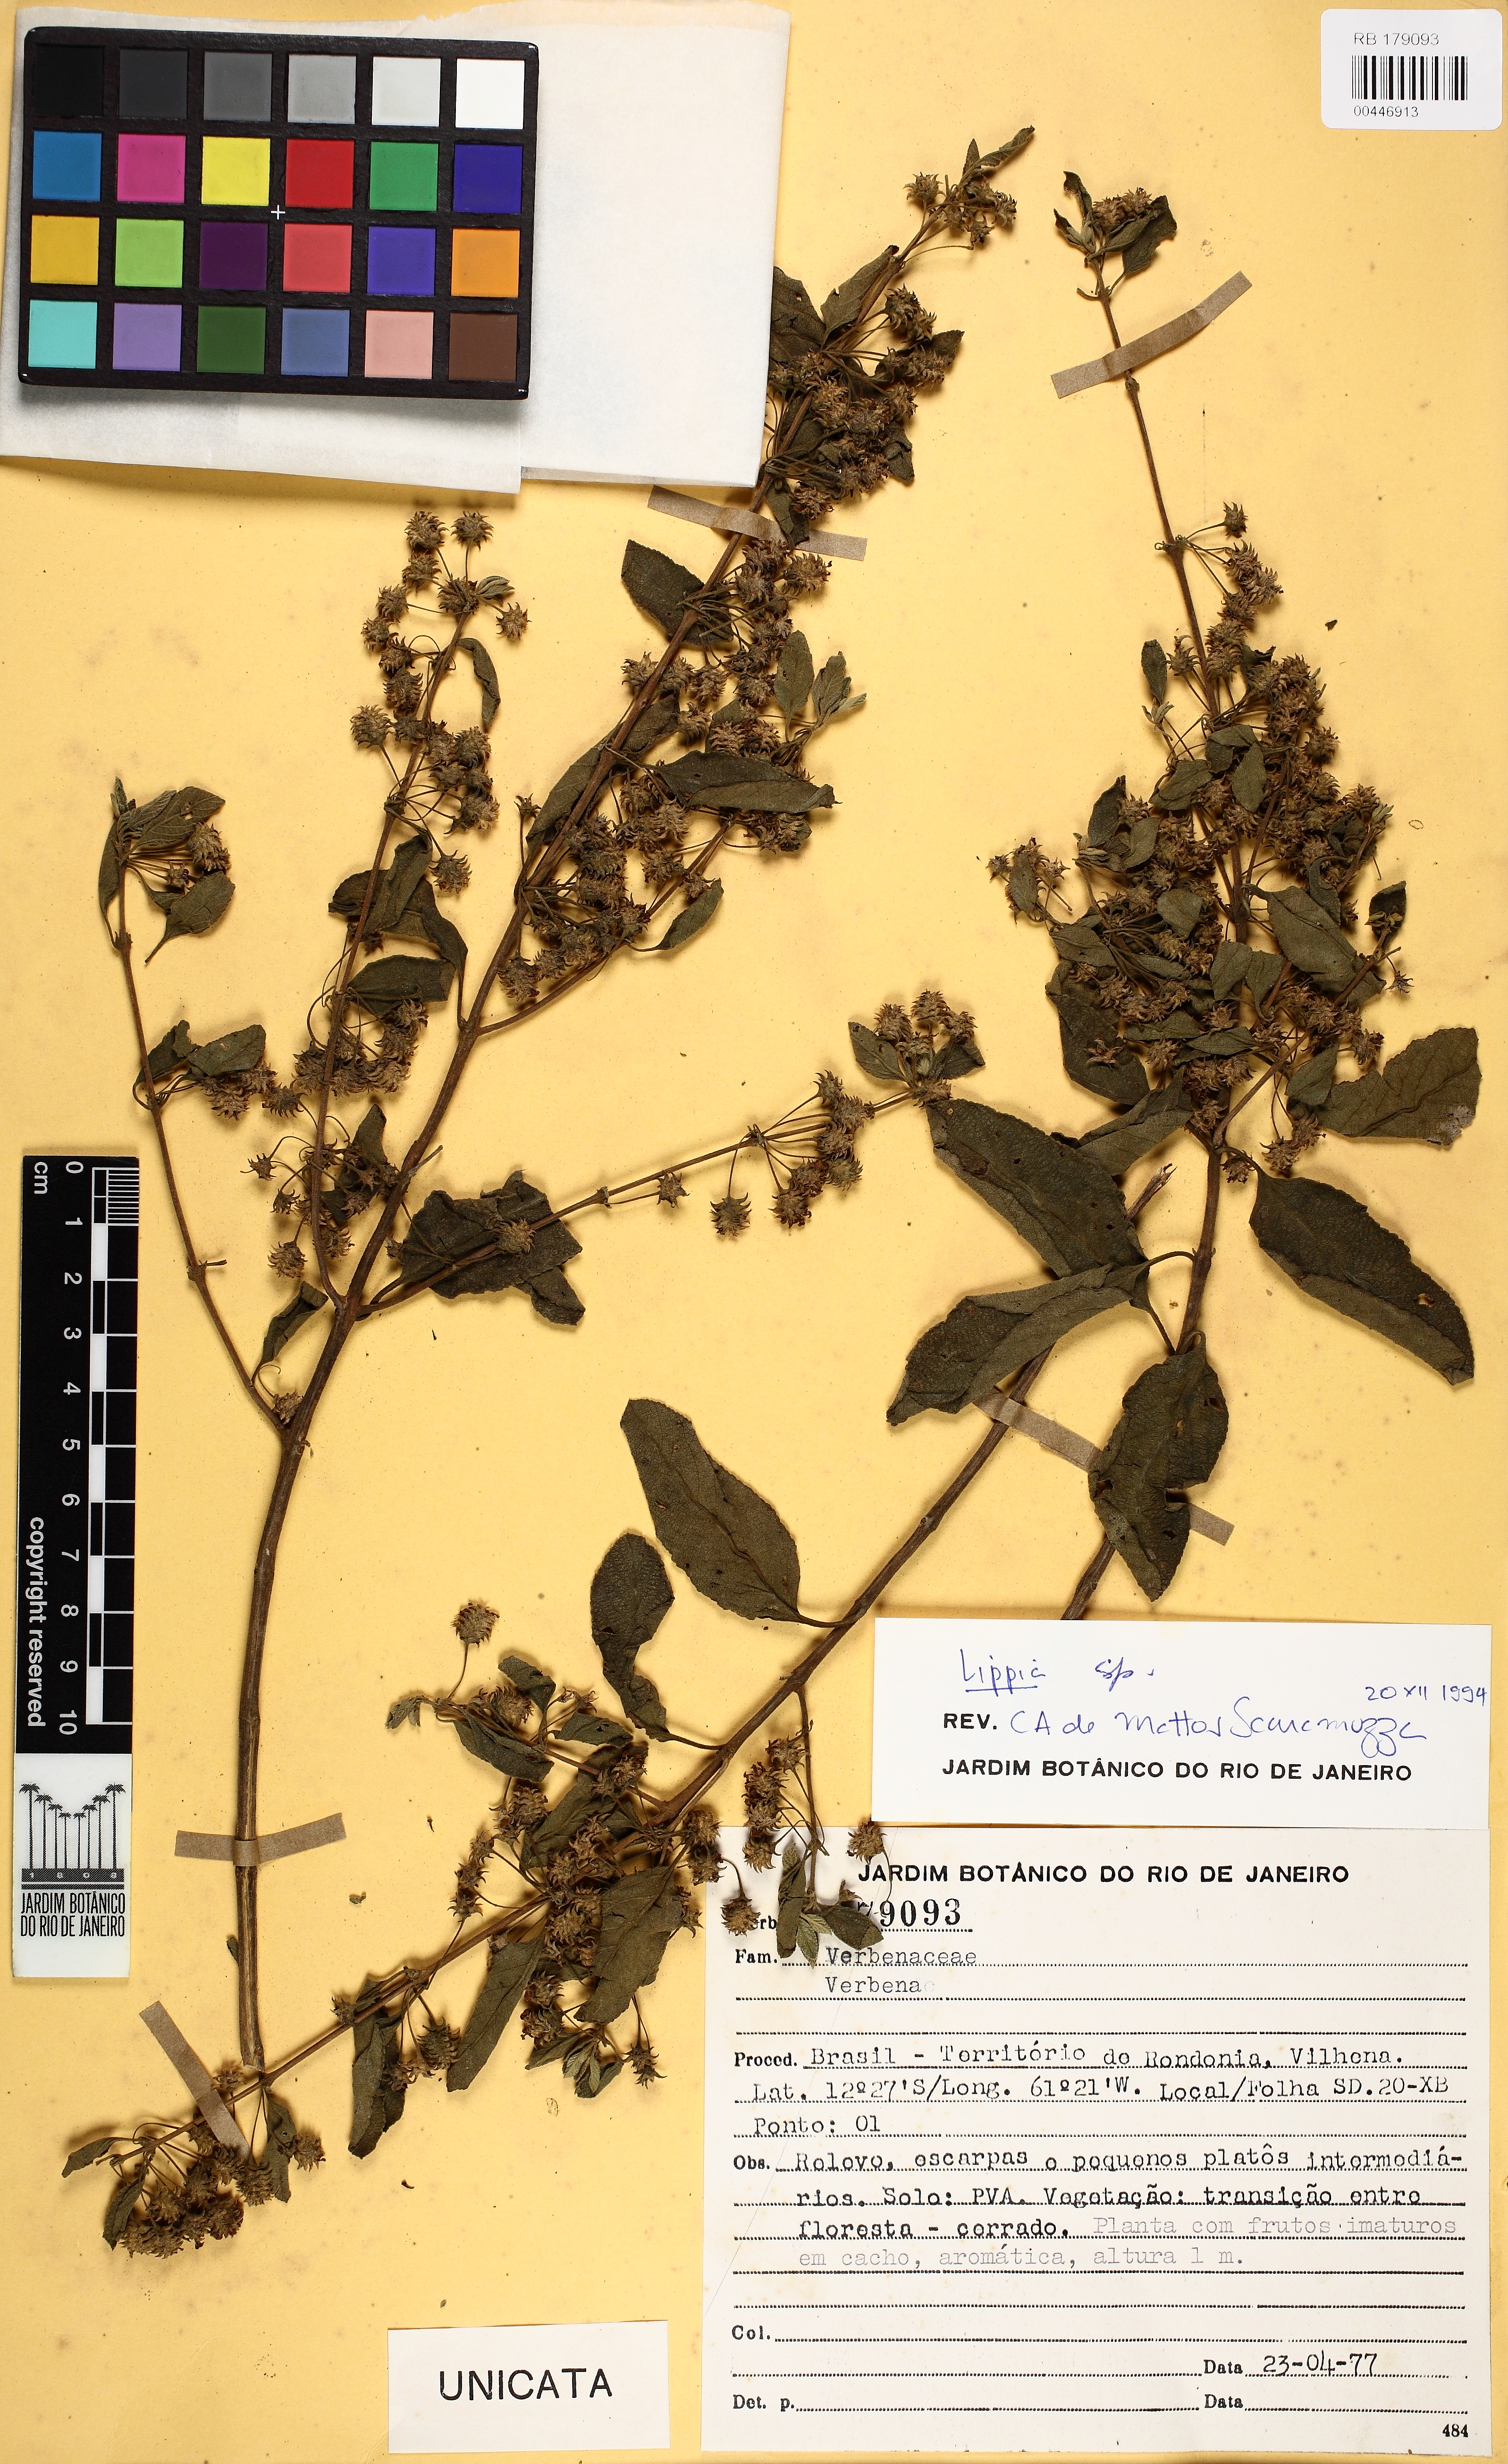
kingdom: Plantae
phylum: Tracheophyta
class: Magnoliopsida
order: Lamiales
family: Verbenaceae
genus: Lippia
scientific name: Lippia
